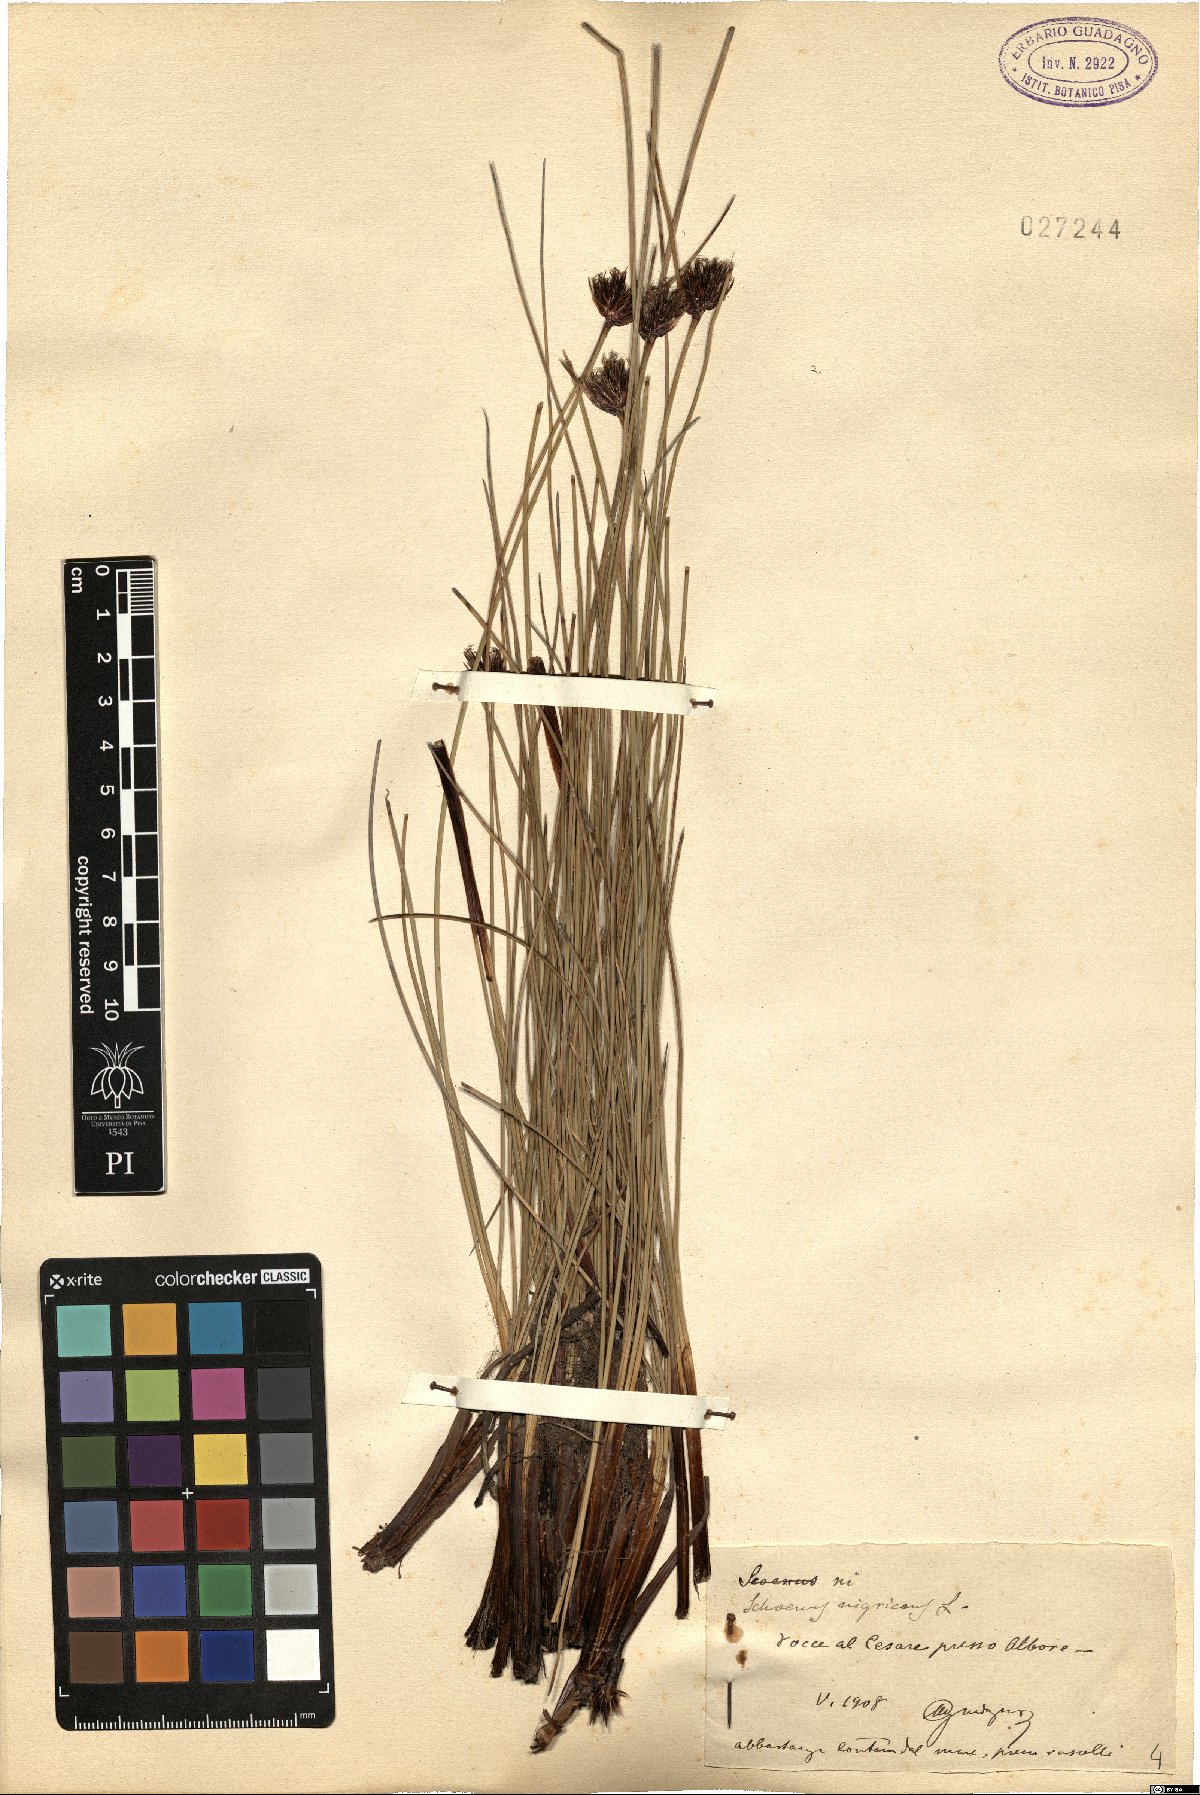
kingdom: Plantae
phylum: Tracheophyta
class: Liliopsida
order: Poales
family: Cyperaceae
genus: Schoenus
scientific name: Schoenus nigricans
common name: Black bog-rush
